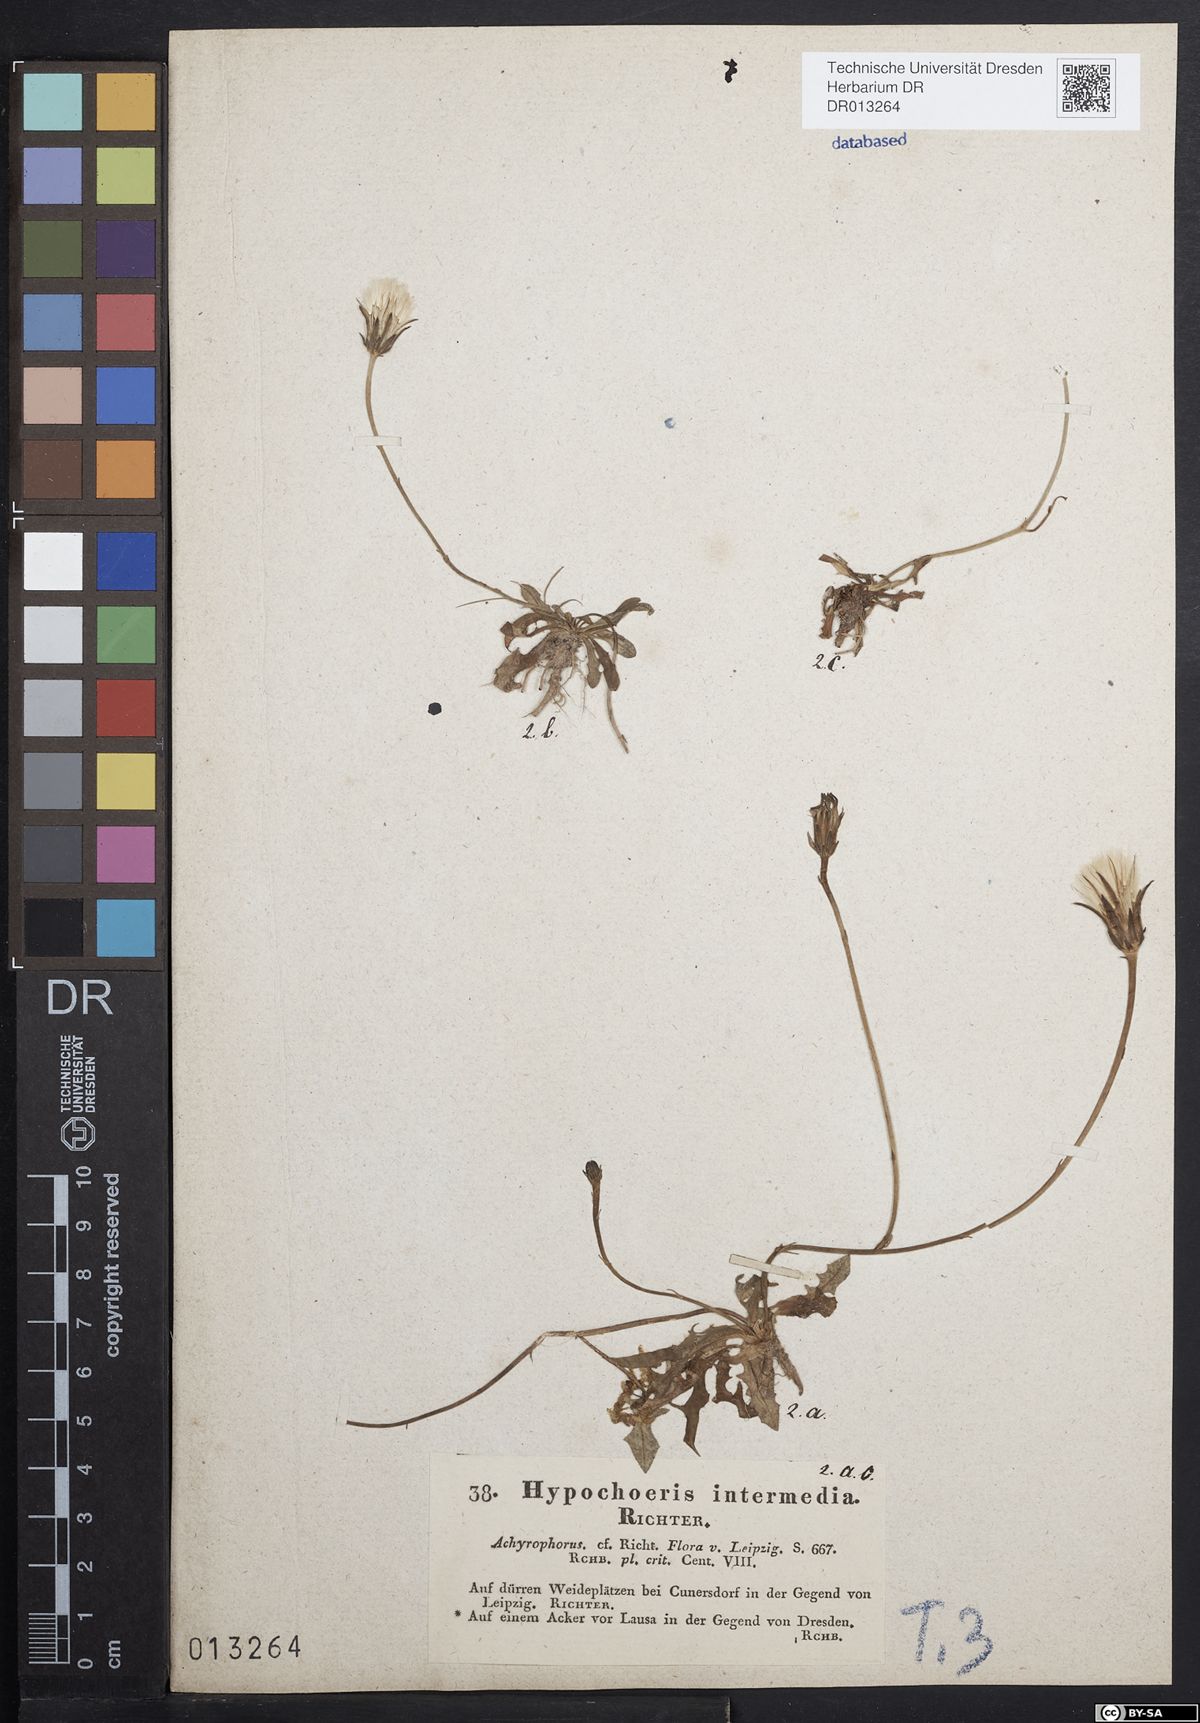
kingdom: Plantae
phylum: Tracheophyta
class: Magnoliopsida
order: Asterales
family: Asteraceae
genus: Hypochaeris
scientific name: Hypochaeris glabra
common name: Smooth catsear
